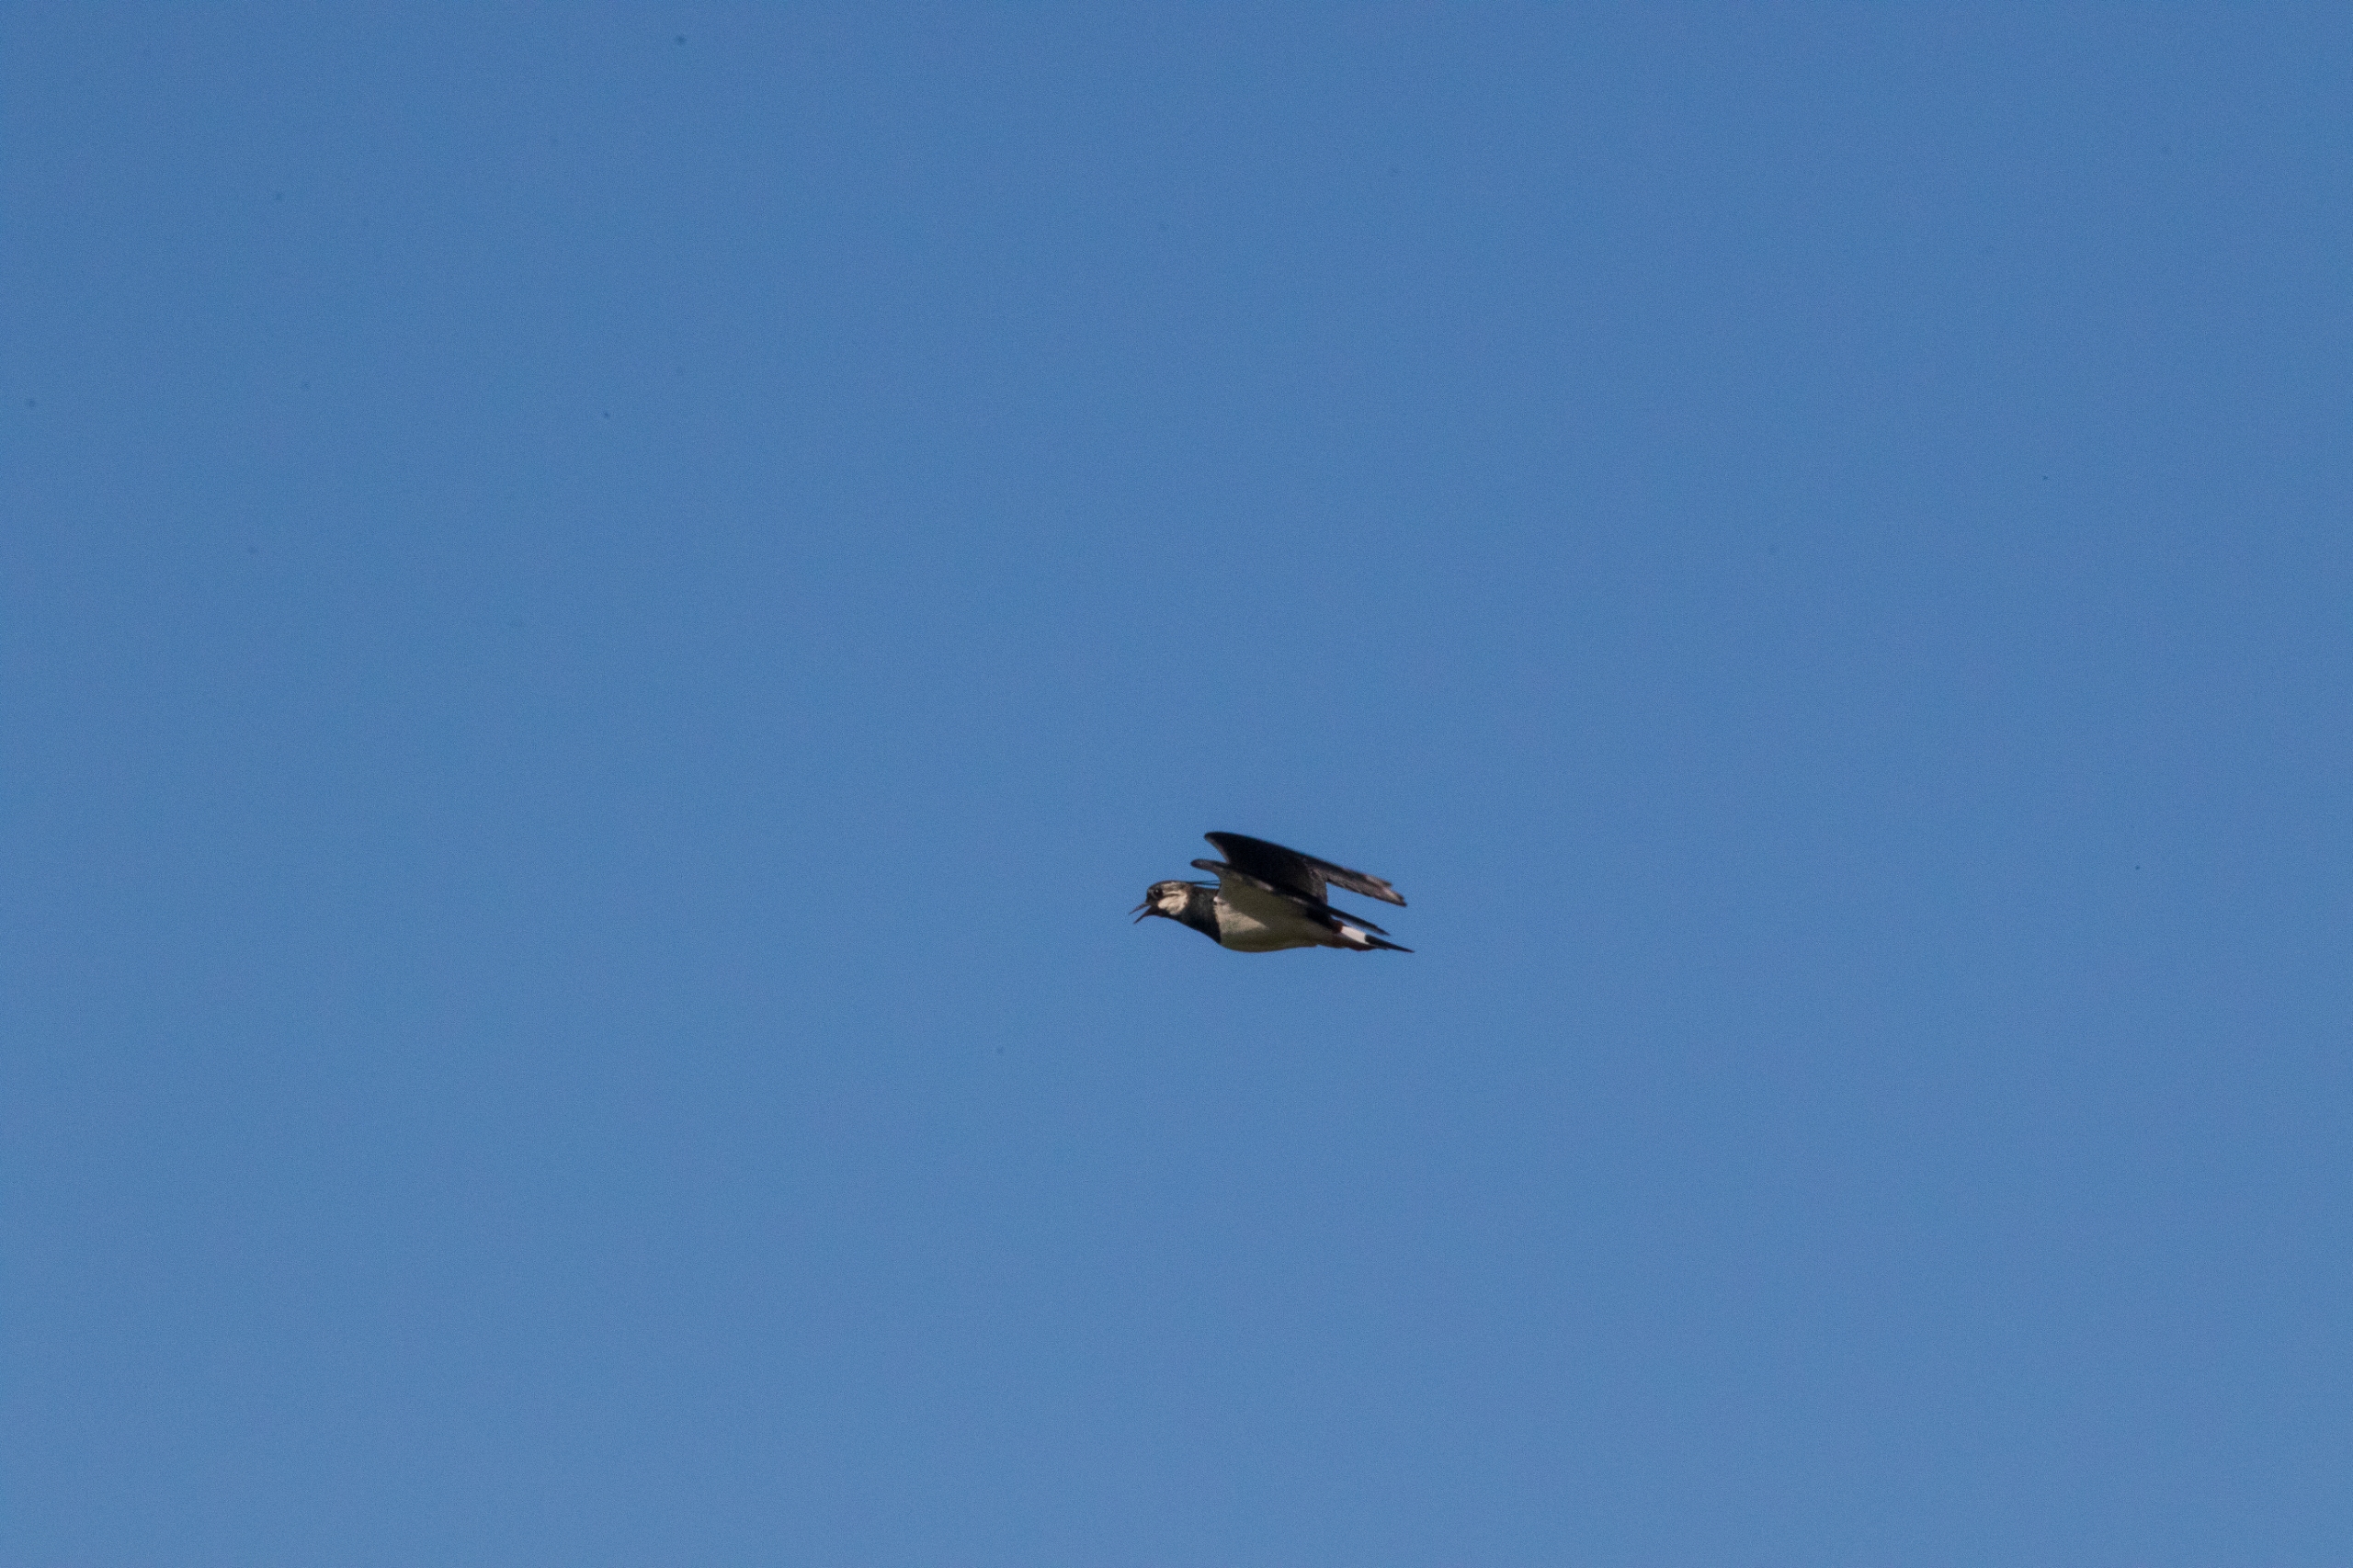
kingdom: Animalia
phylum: Chordata
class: Aves
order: Charadriiformes
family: Charadriidae
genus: Vanellus
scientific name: Vanellus vanellus
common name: Vibe
